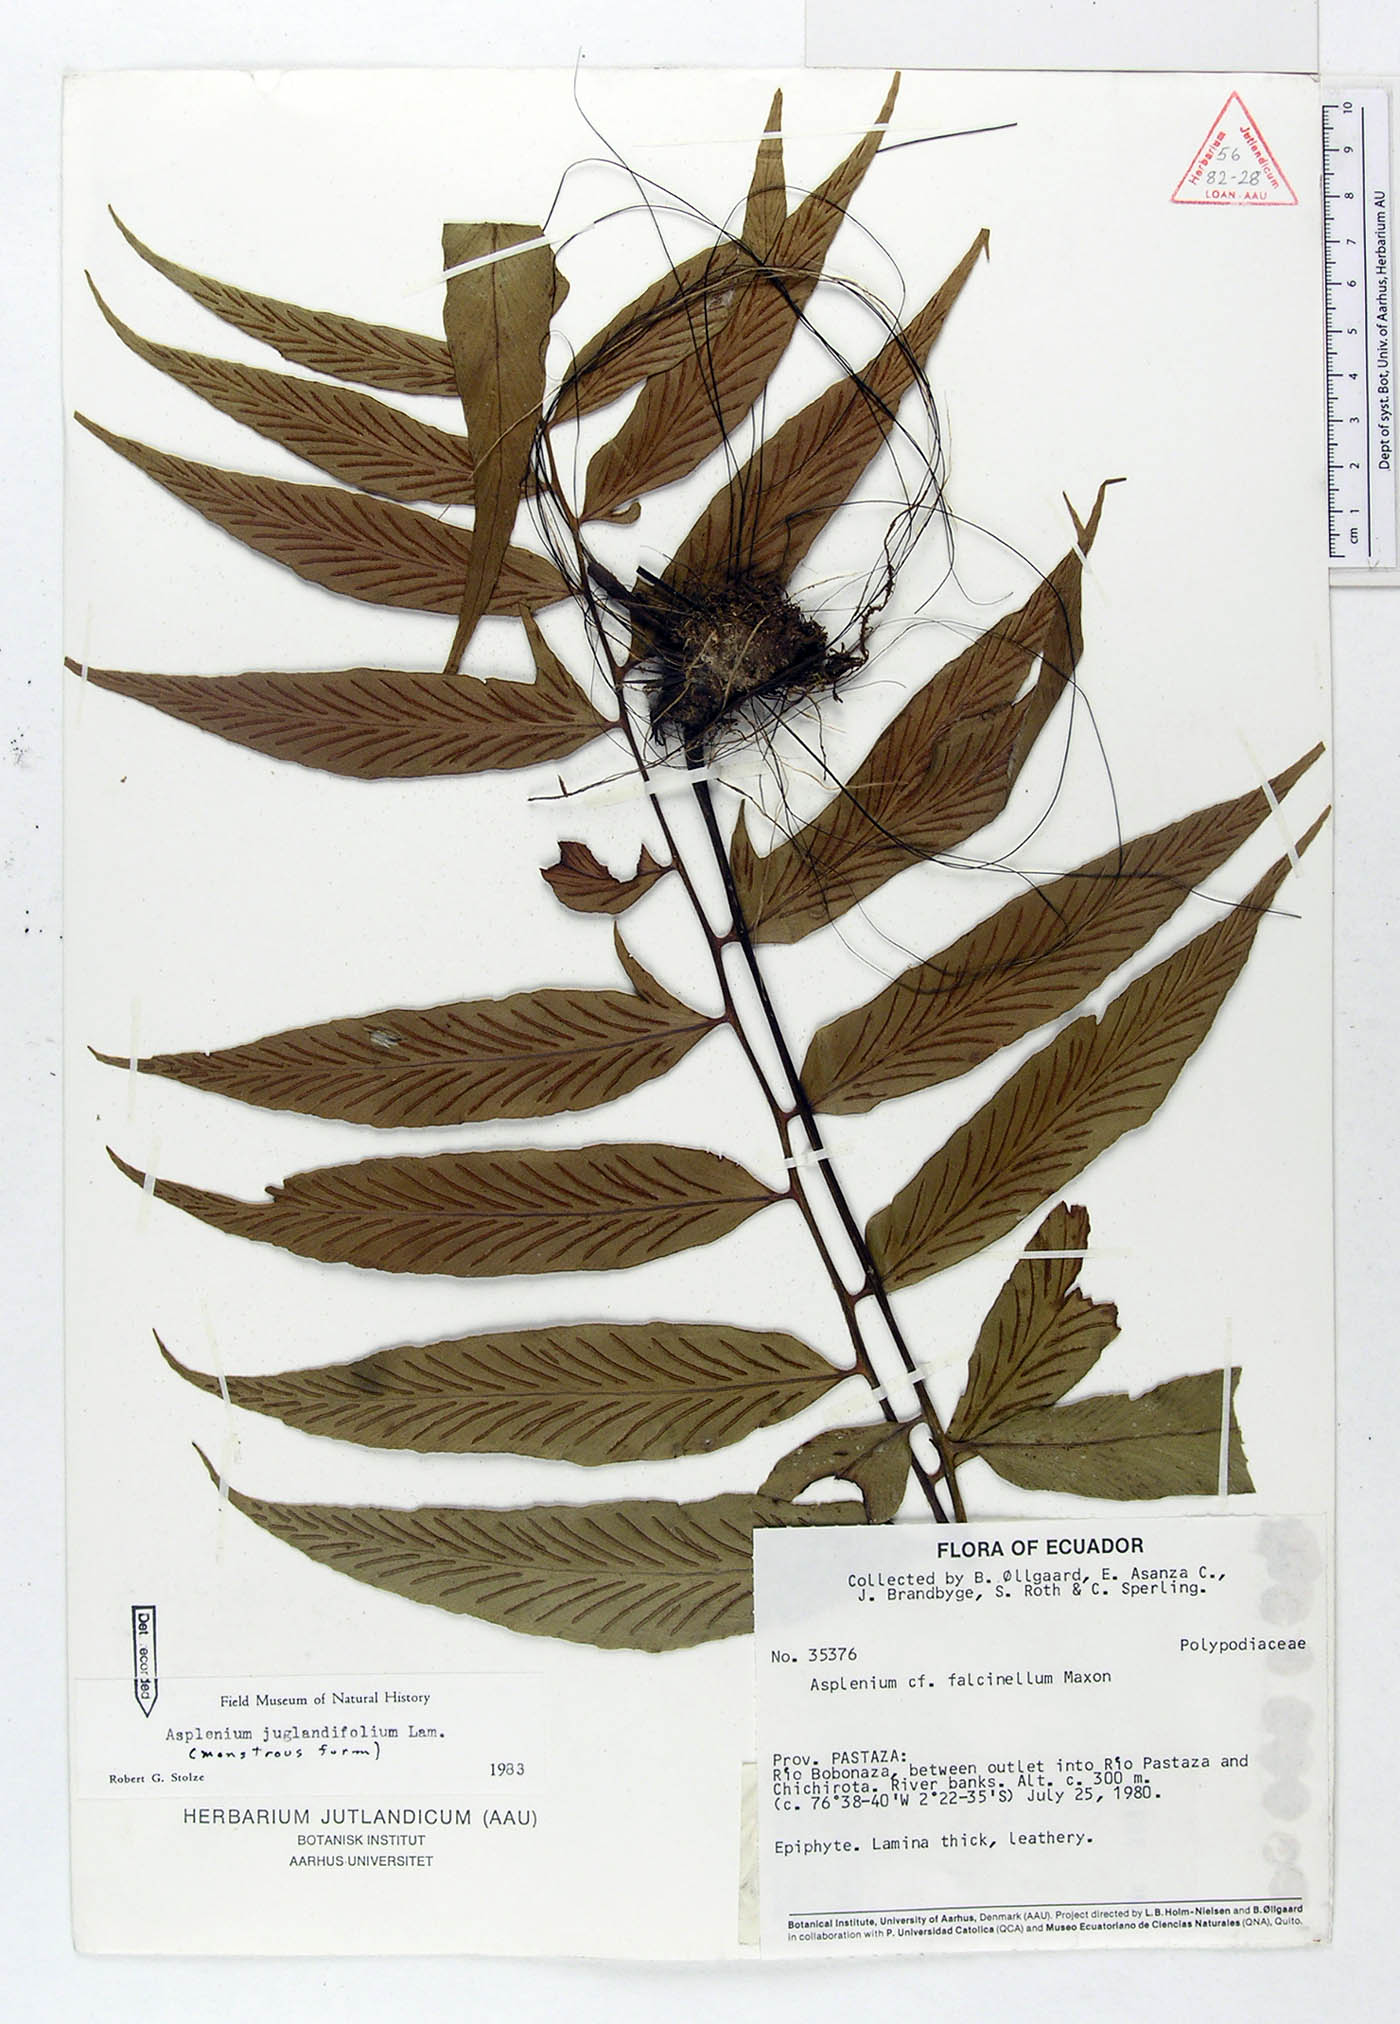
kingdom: Plantae
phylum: Tracheophyta
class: Polypodiopsida
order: Polypodiales
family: Aspleniaceae
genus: Asplenium
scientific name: Asplenium juglandifolium
